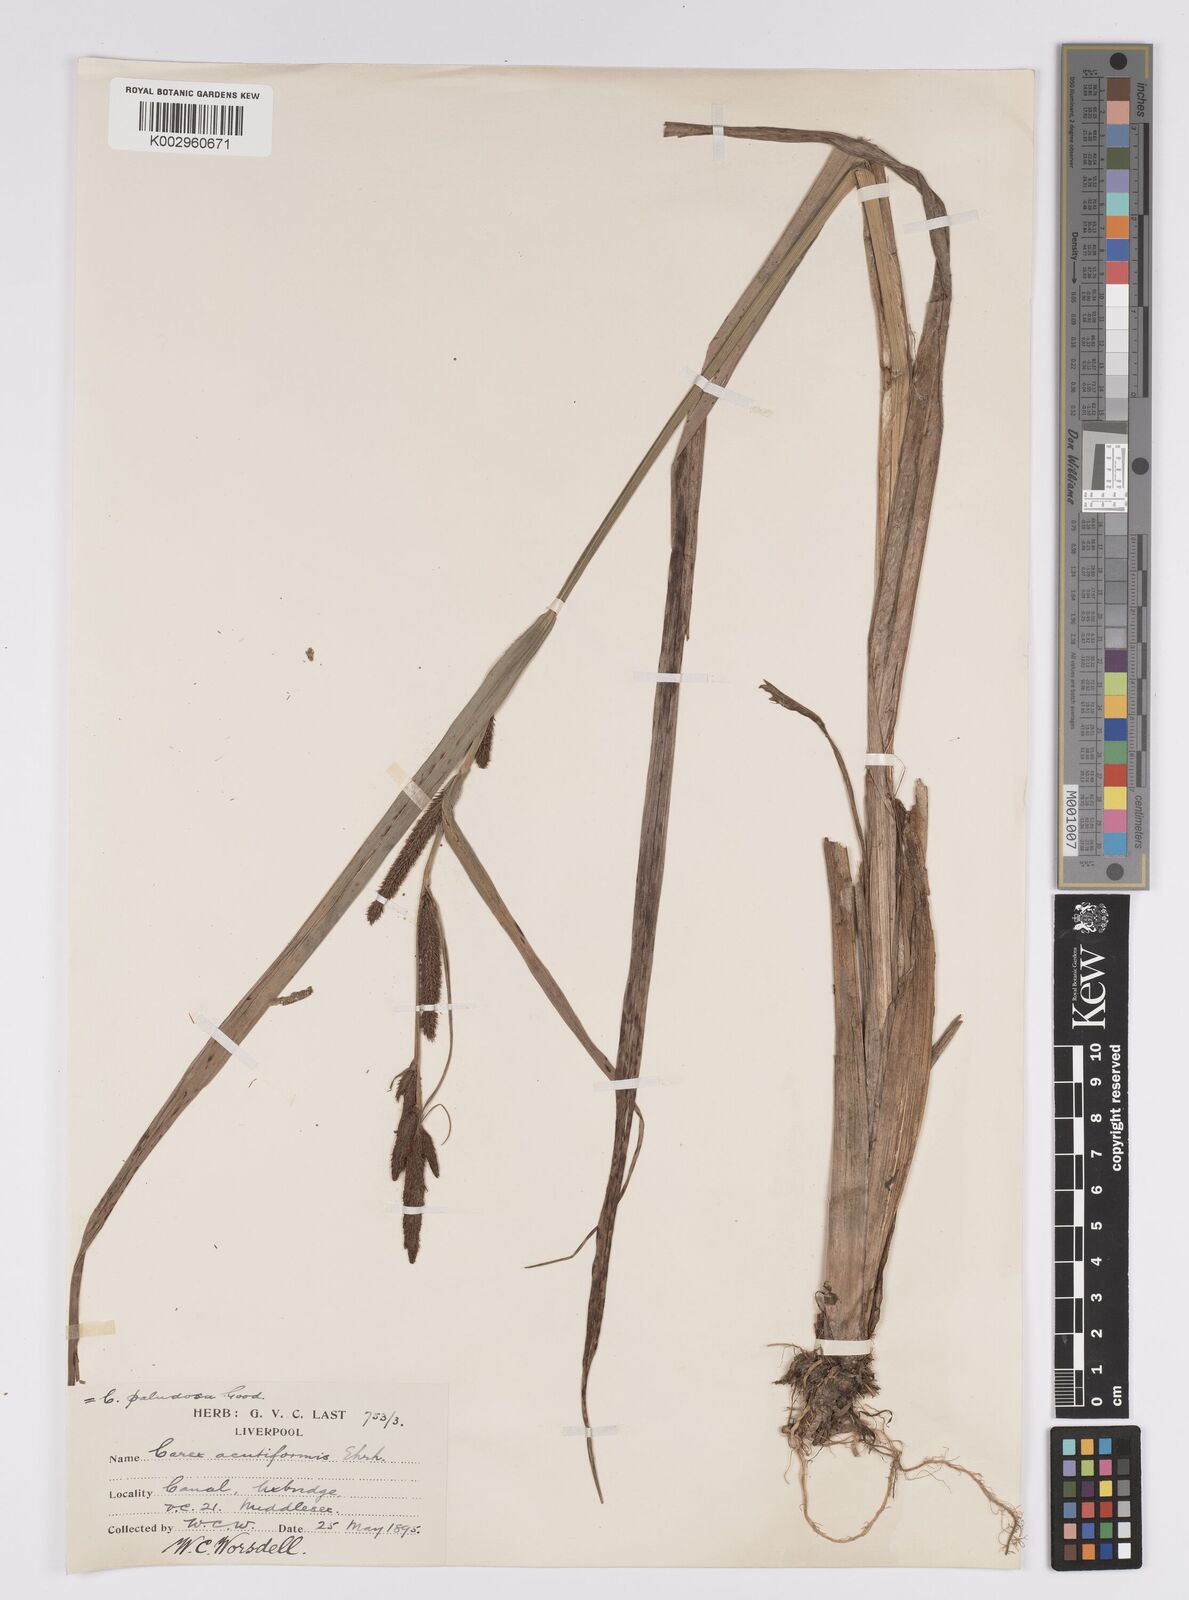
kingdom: Plantae
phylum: Tracheophyta
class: Liliopsida
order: Poales
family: Cyperaceae
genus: Carex
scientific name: Carex acutiformis
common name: Lesser pond-sedge
